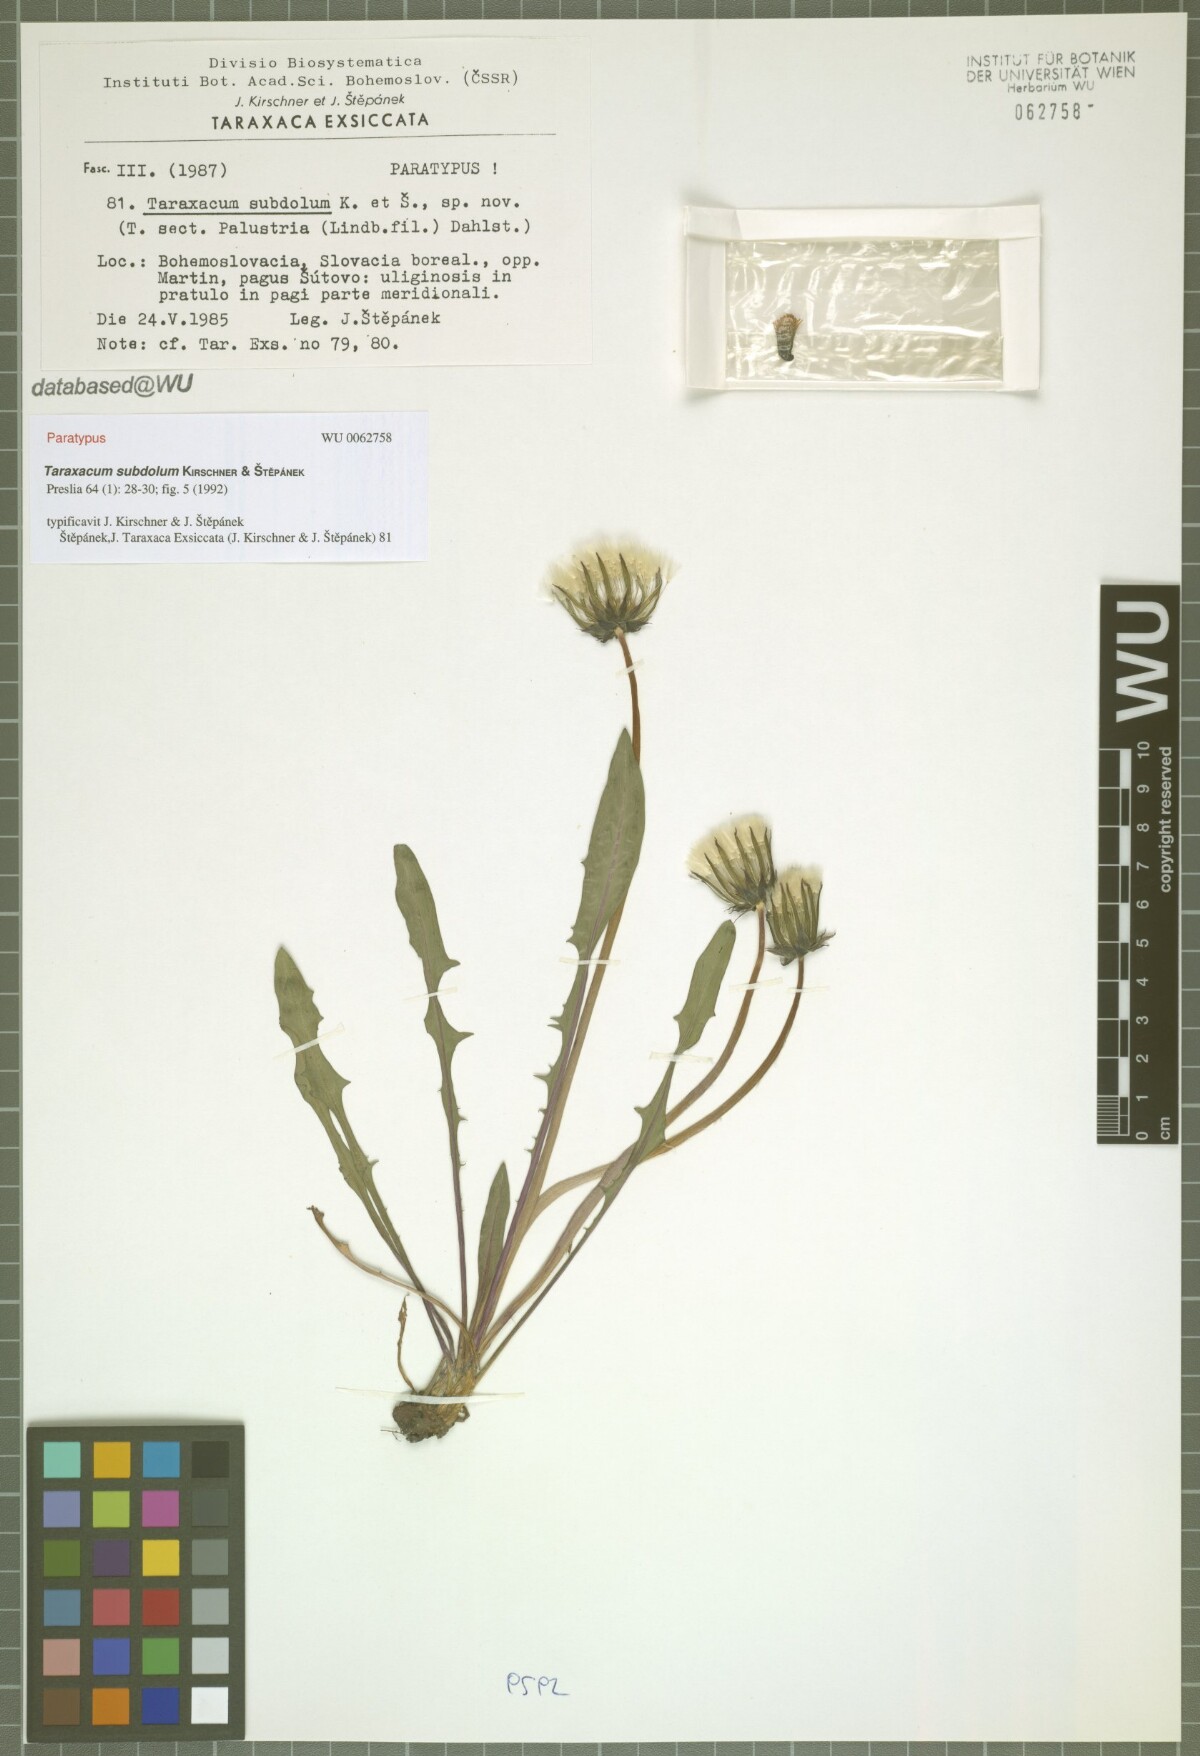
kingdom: Plantae
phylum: Tracheophyta
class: Magnoliopsida
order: Asterales
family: Asteraceae
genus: Taraxacum
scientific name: Taraxacum subdolum
